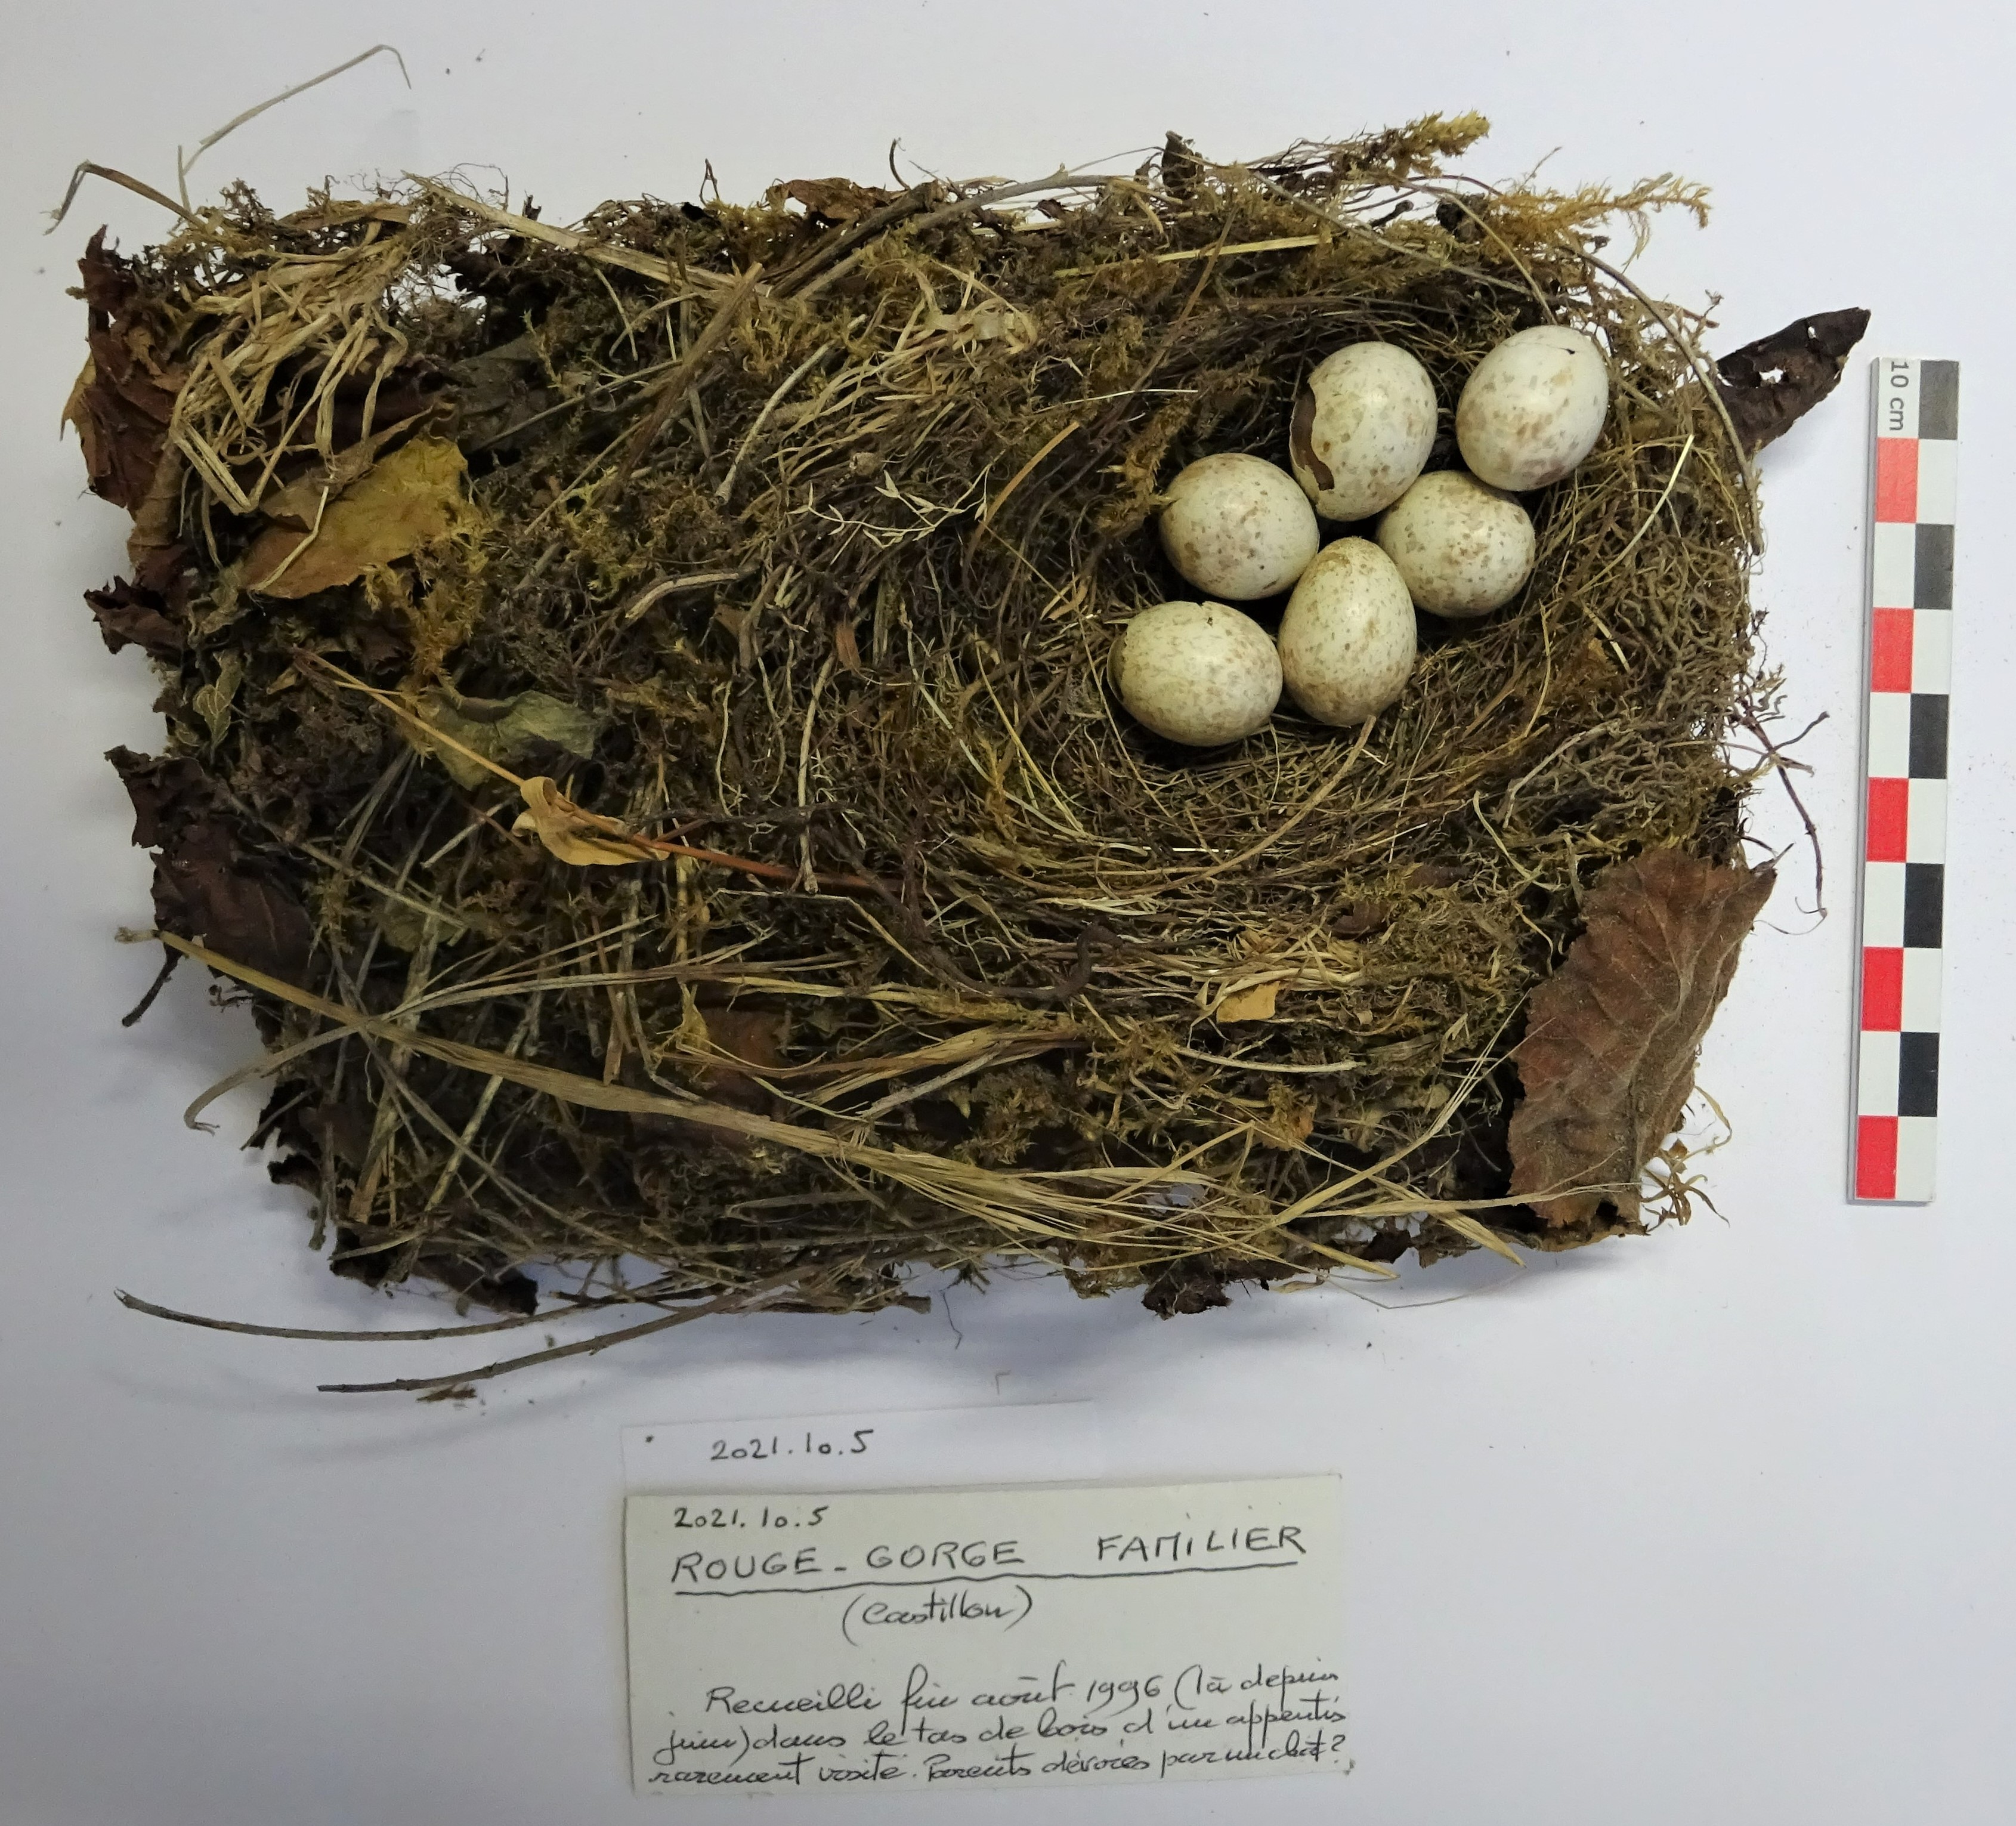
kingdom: Animalia
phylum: Chordata
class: Aves
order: Passeriformes
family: Muscicapidae
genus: Erithacus
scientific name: Erithacus rubecula
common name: European robin
